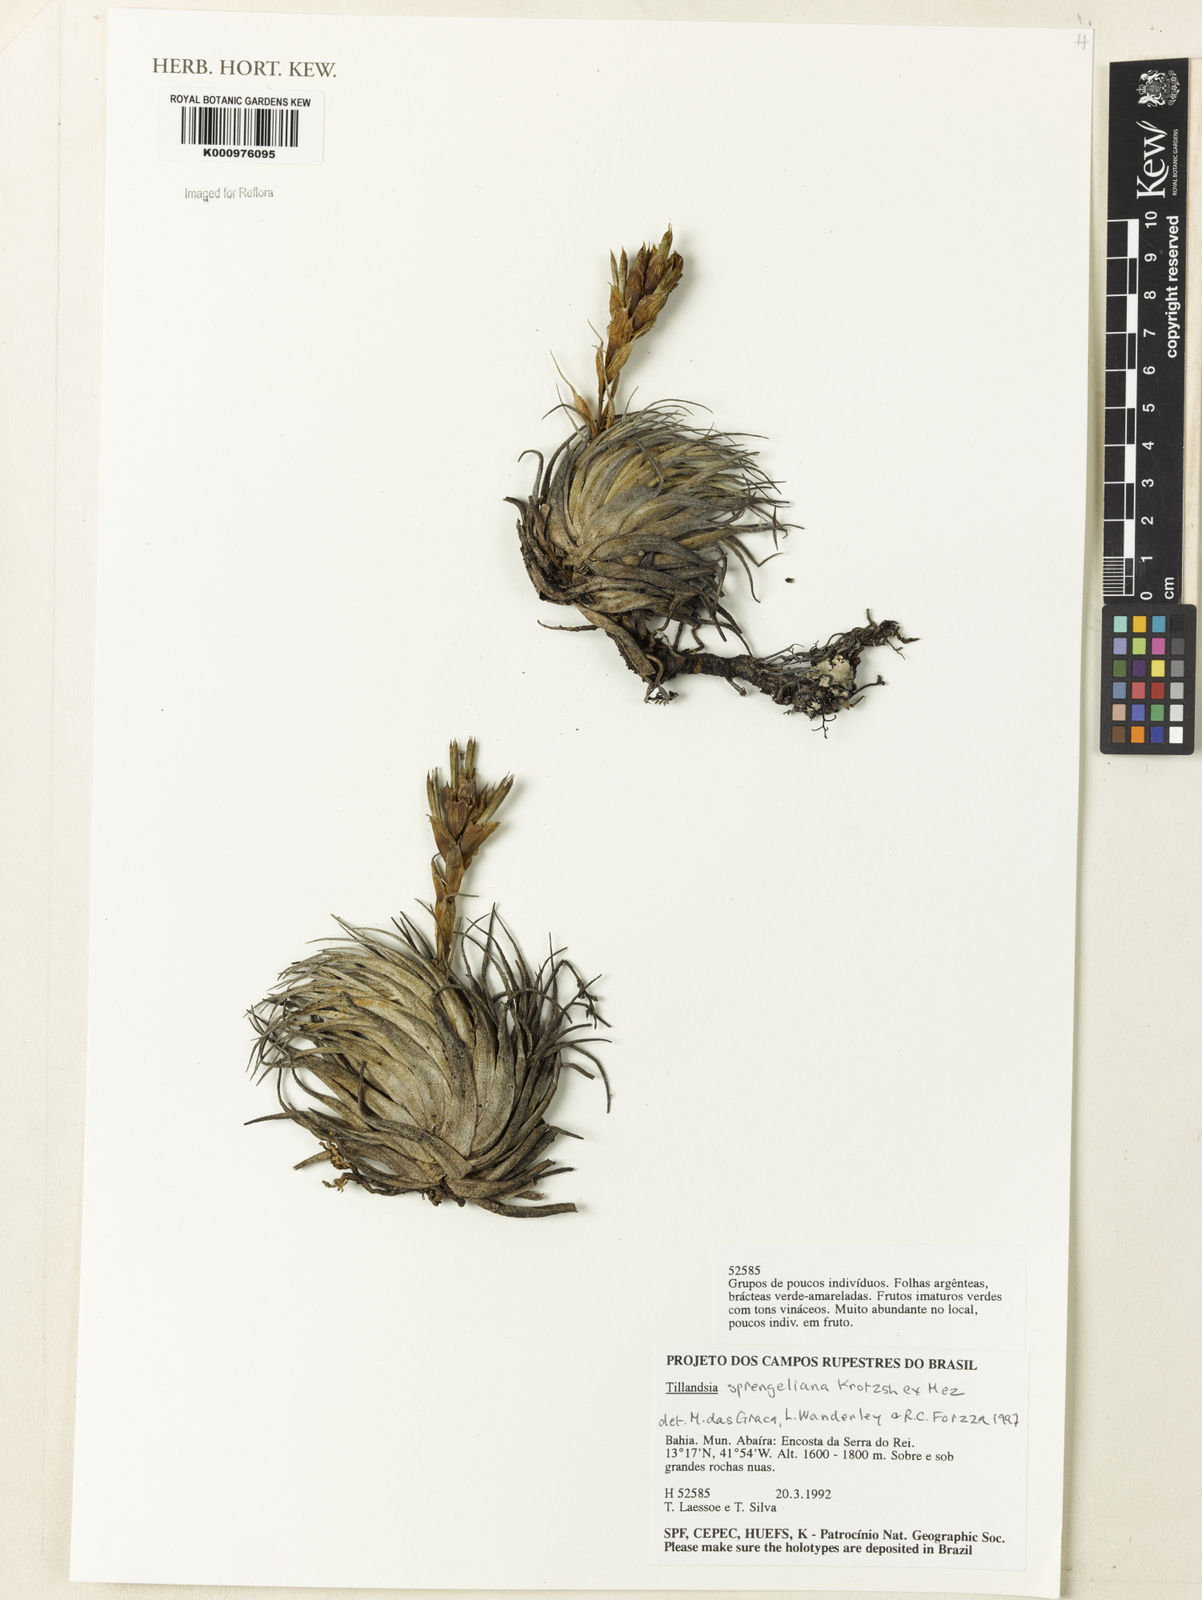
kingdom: Plantae
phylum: Tracheophyta
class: Liliopsida
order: Poales
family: Bromeliaceae
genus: Tillandsia
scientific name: Tillandsia sprengeliana
